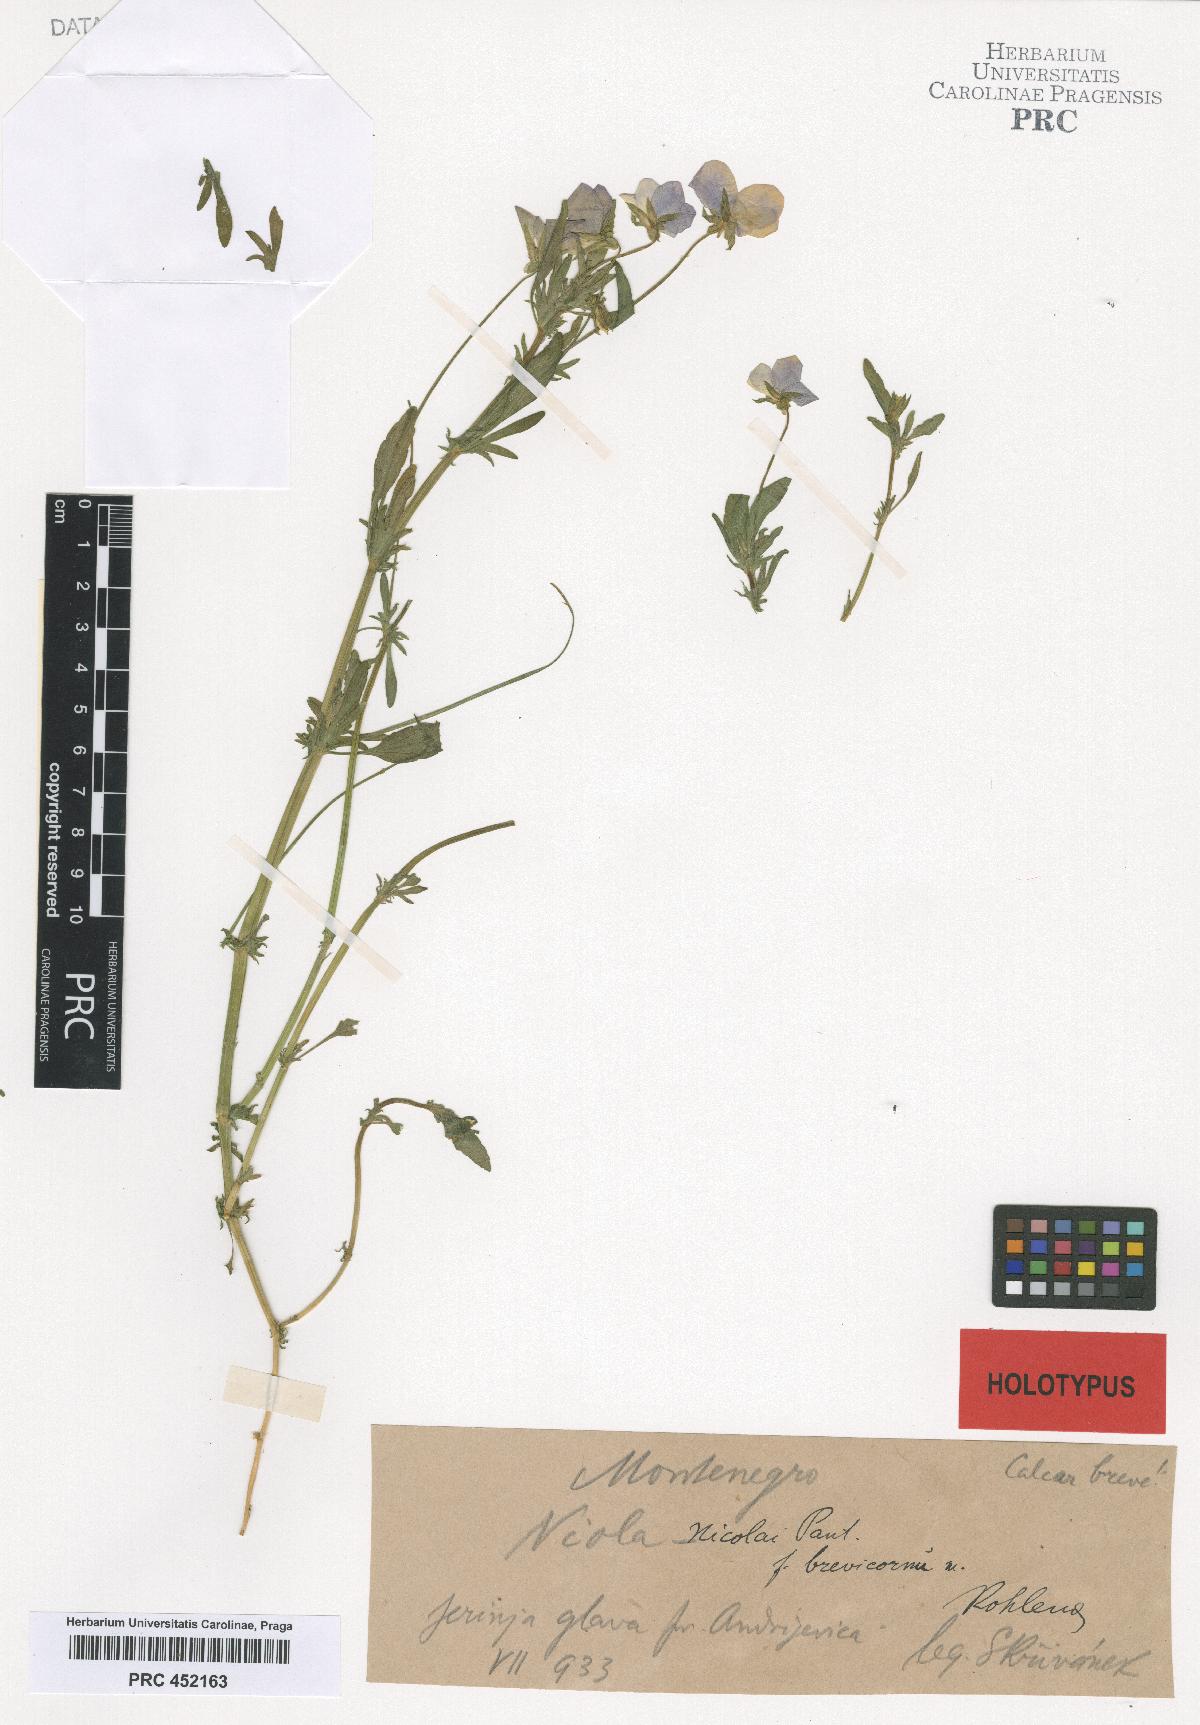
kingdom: Plantae
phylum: Tracheophyta
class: Magnoliopsida
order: Malpighiales
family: Violaceae
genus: Viola
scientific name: Viola orphanidis
